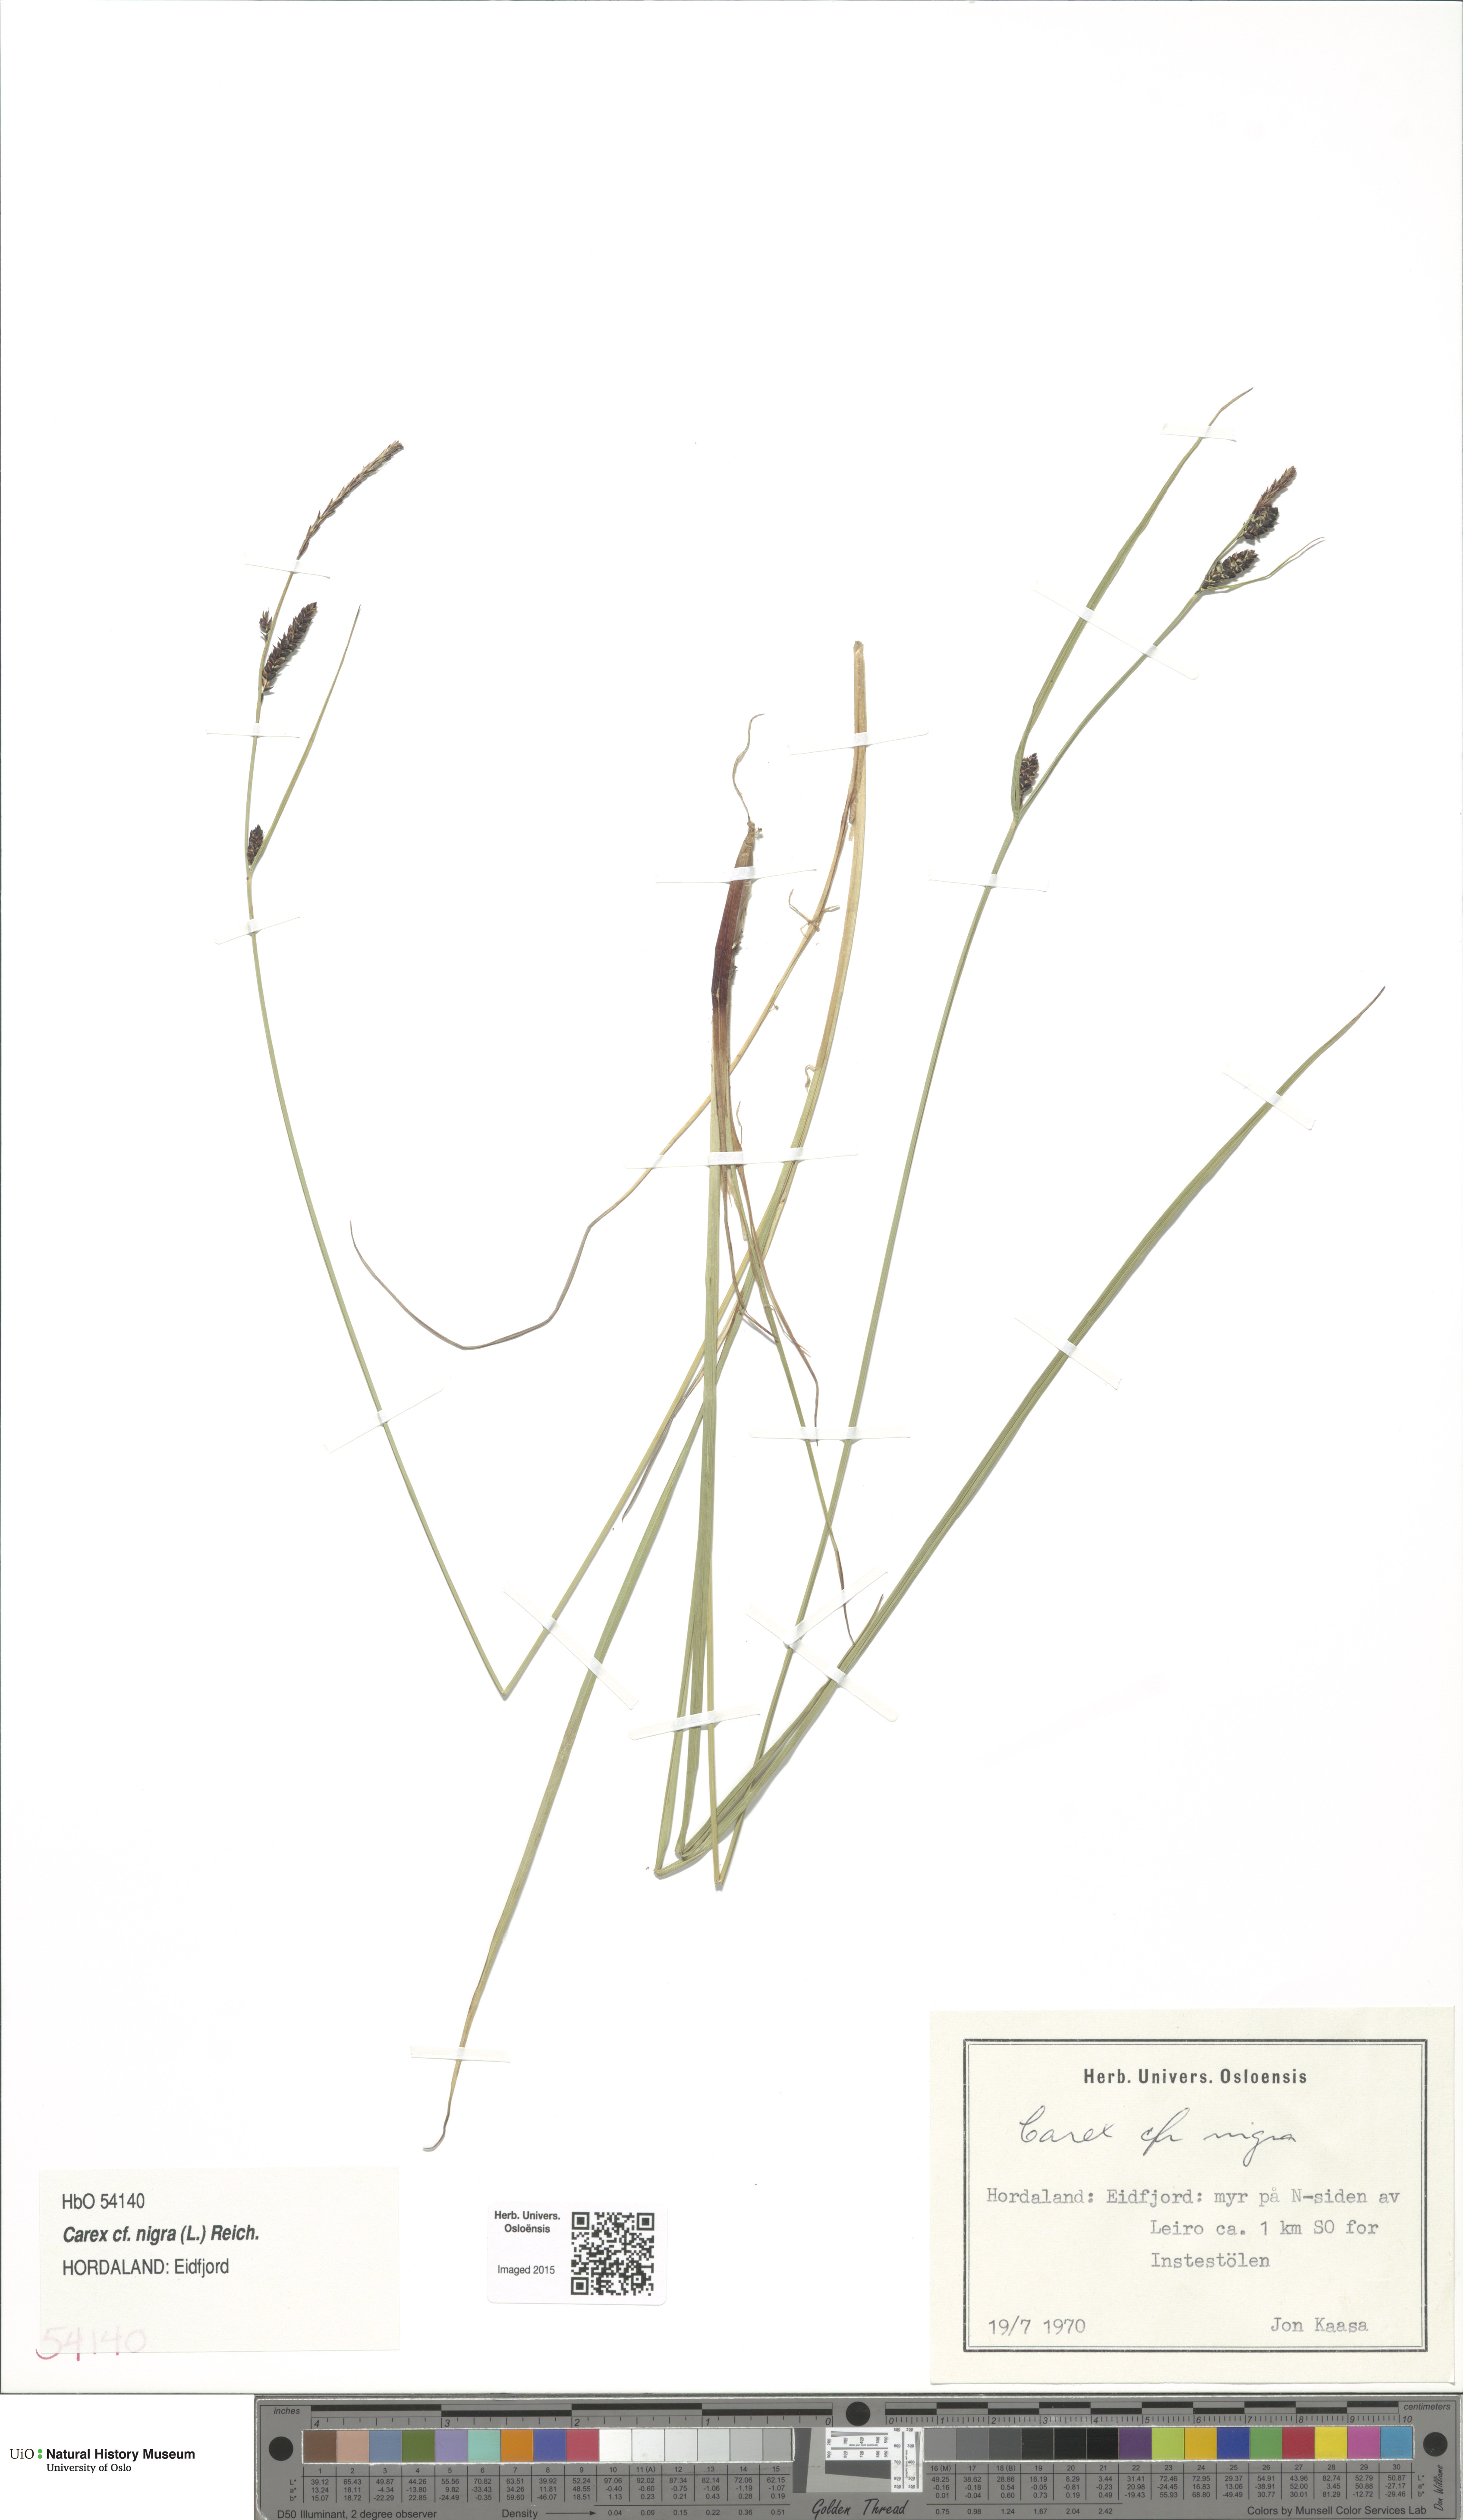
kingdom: Plantae
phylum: Tracheophyta
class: Liliopsida
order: Poales
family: Cyperaceae
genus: Carex
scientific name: Carex nigra
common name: Common sedge
